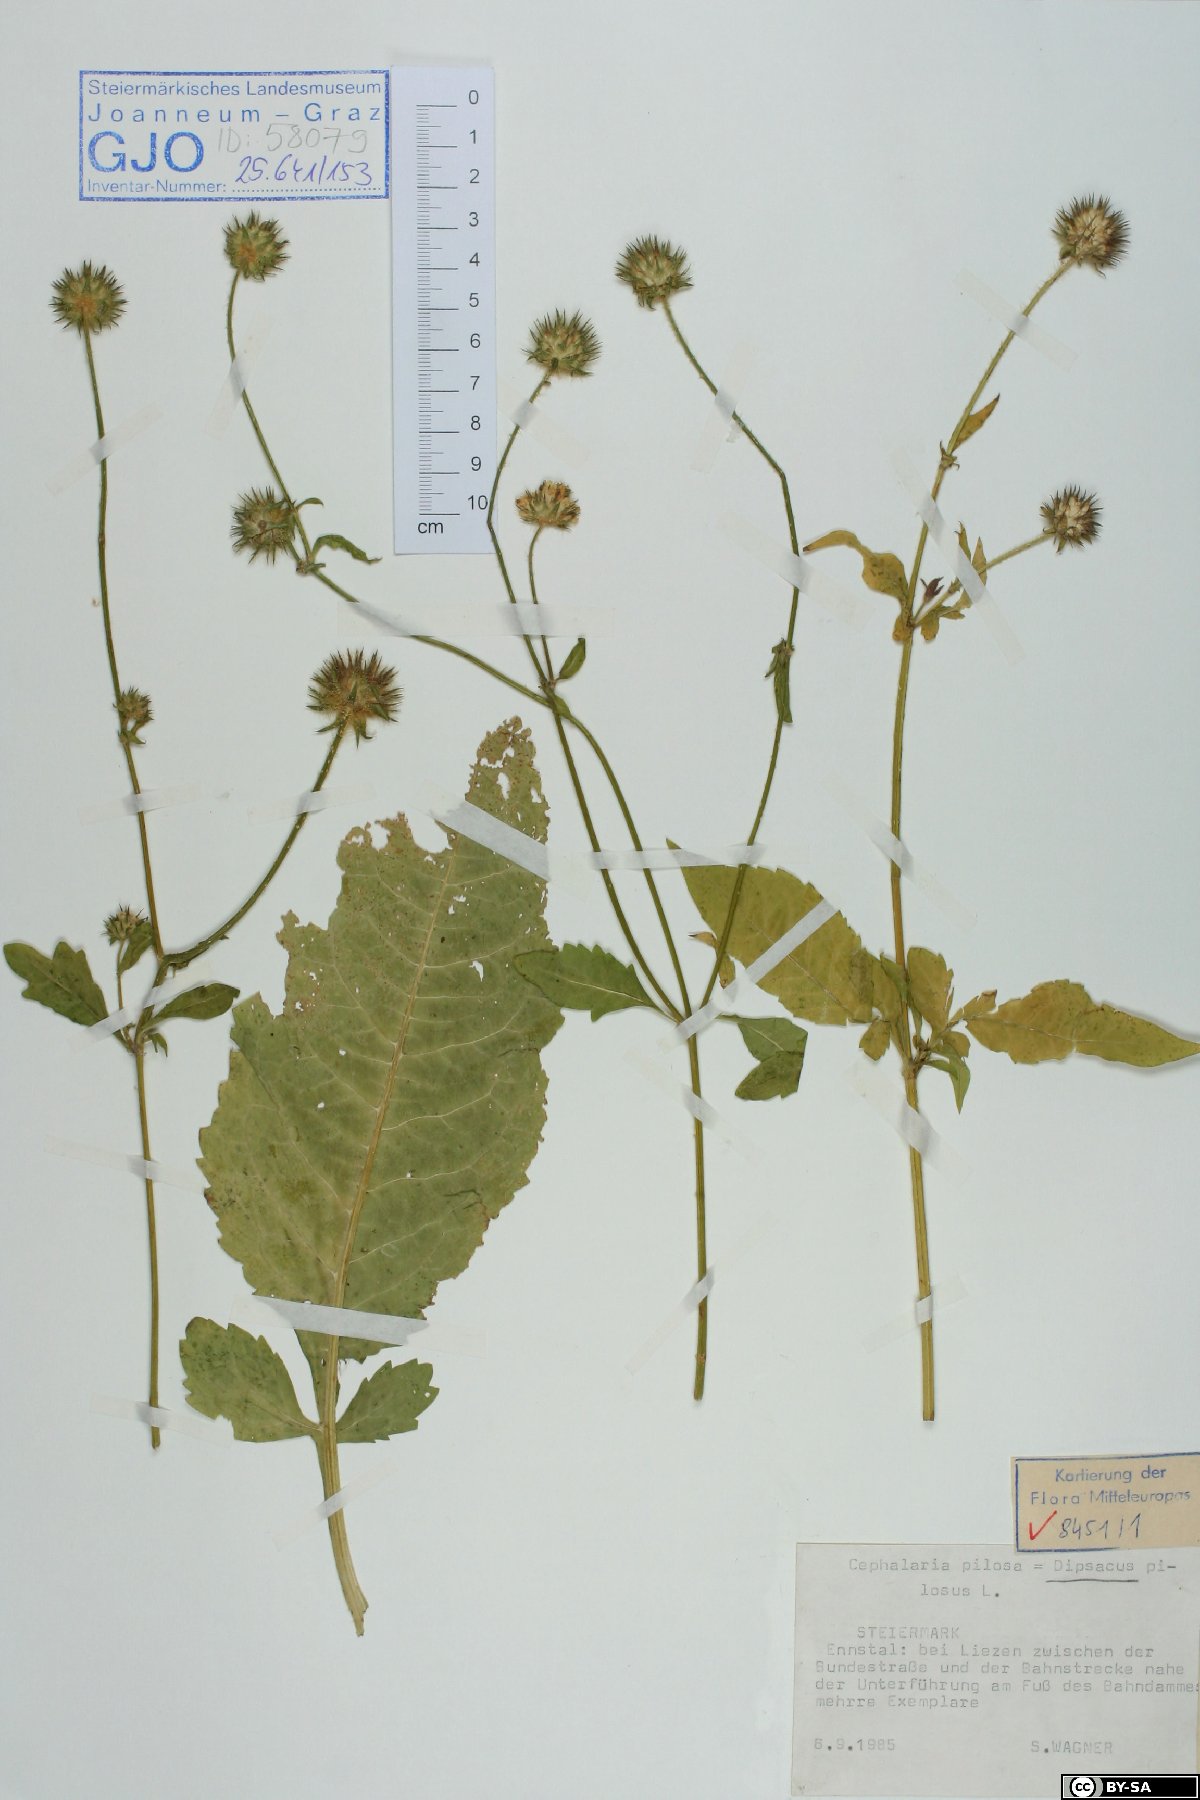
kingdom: Plantae
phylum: Tracheophyta
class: Magnoliopsida
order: Dipsacales
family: Caprifoliaceae
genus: Dipsacus
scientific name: Dipsacus pilosus
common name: Small teasel
